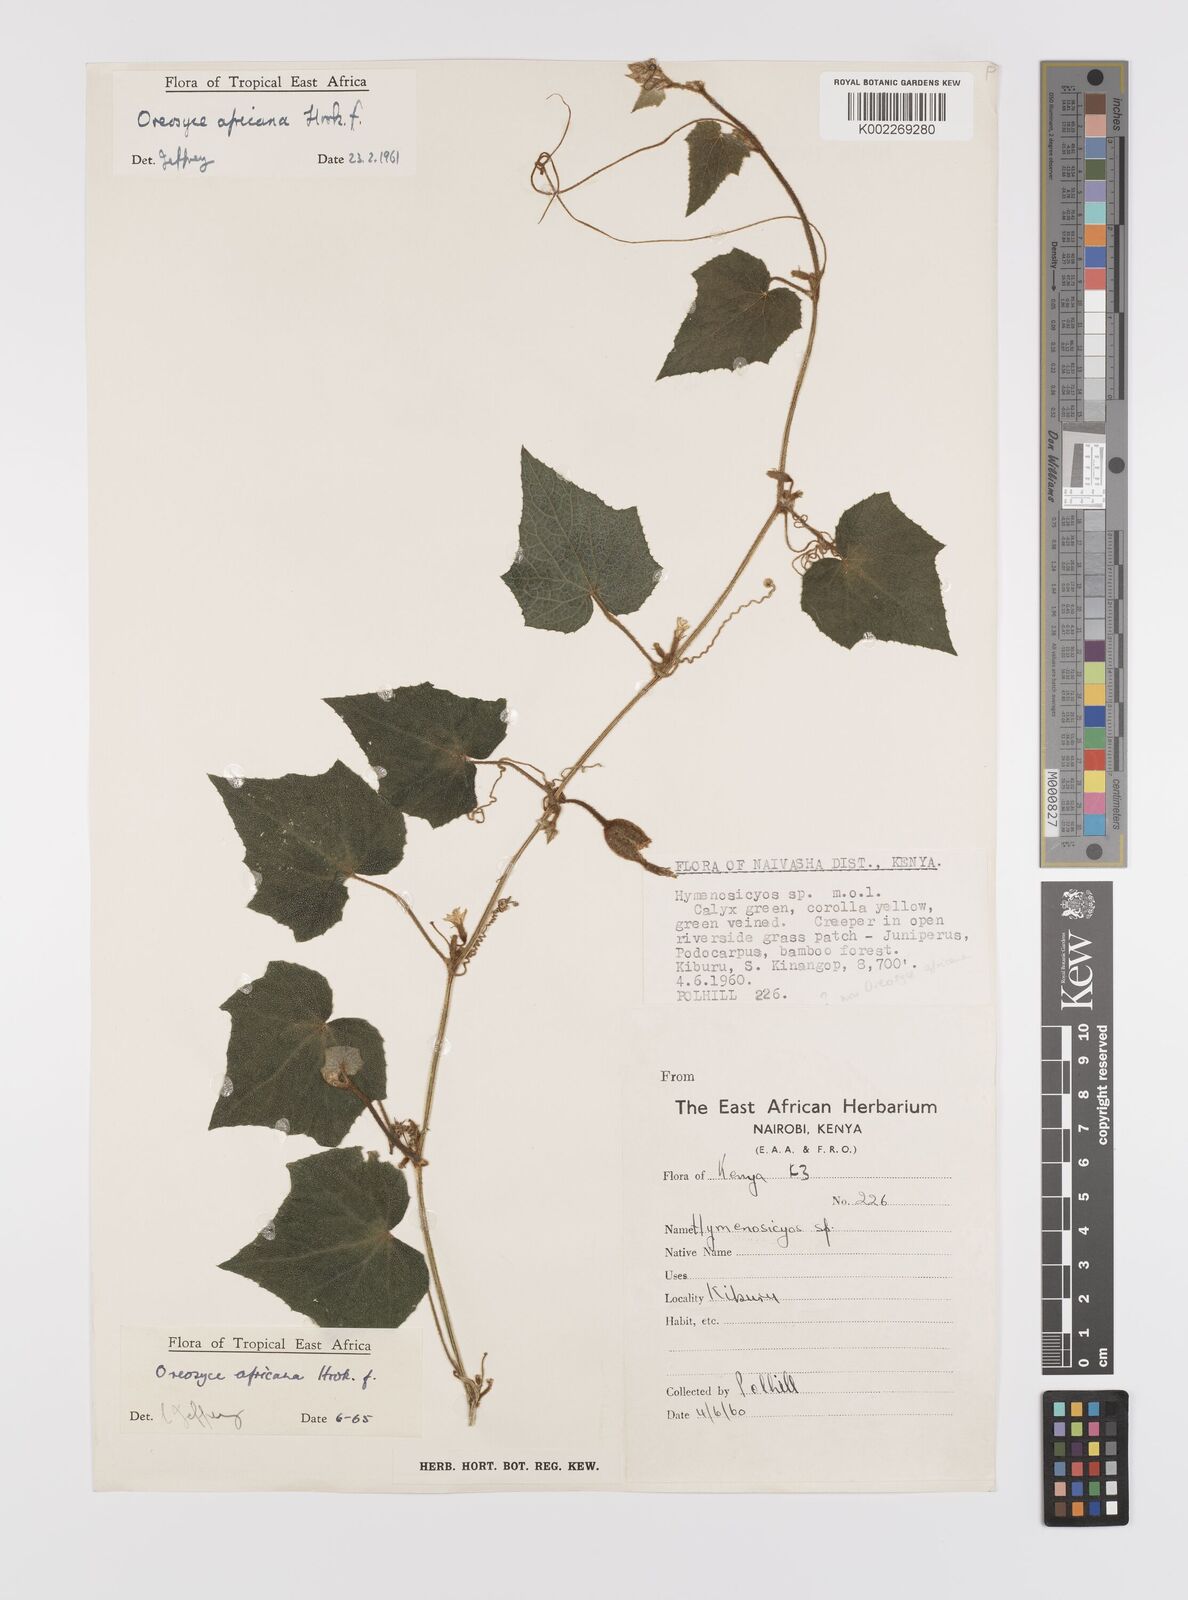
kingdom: Plantae
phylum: Tracheophyta
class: Magnoliopsida
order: Cucurbitales
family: Cucurbitaceae
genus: Cucumis
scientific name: Cucumis oreosyce
